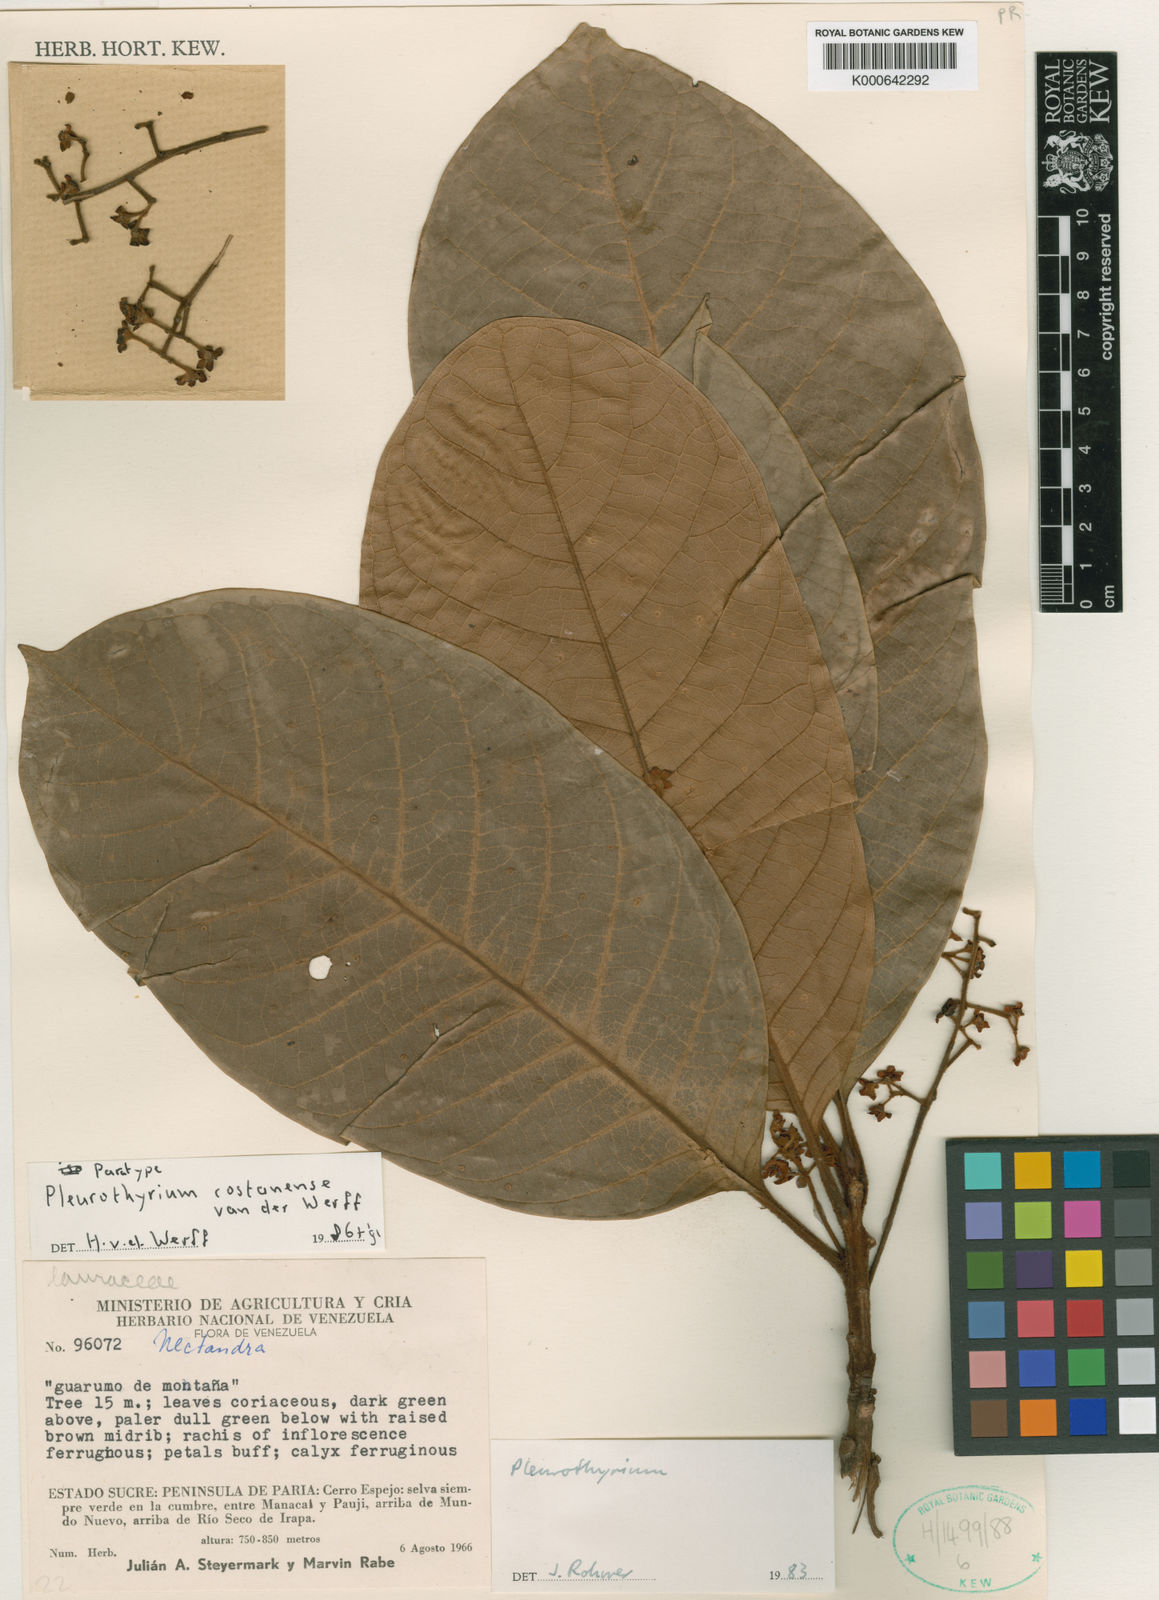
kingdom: Plantae
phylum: Tracheophyta
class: Magnoliopsida
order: Laurales
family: Lauraceae
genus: Pleurothyrium
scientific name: Pleurothyrium costanense
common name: Coastal pleurothyrium
